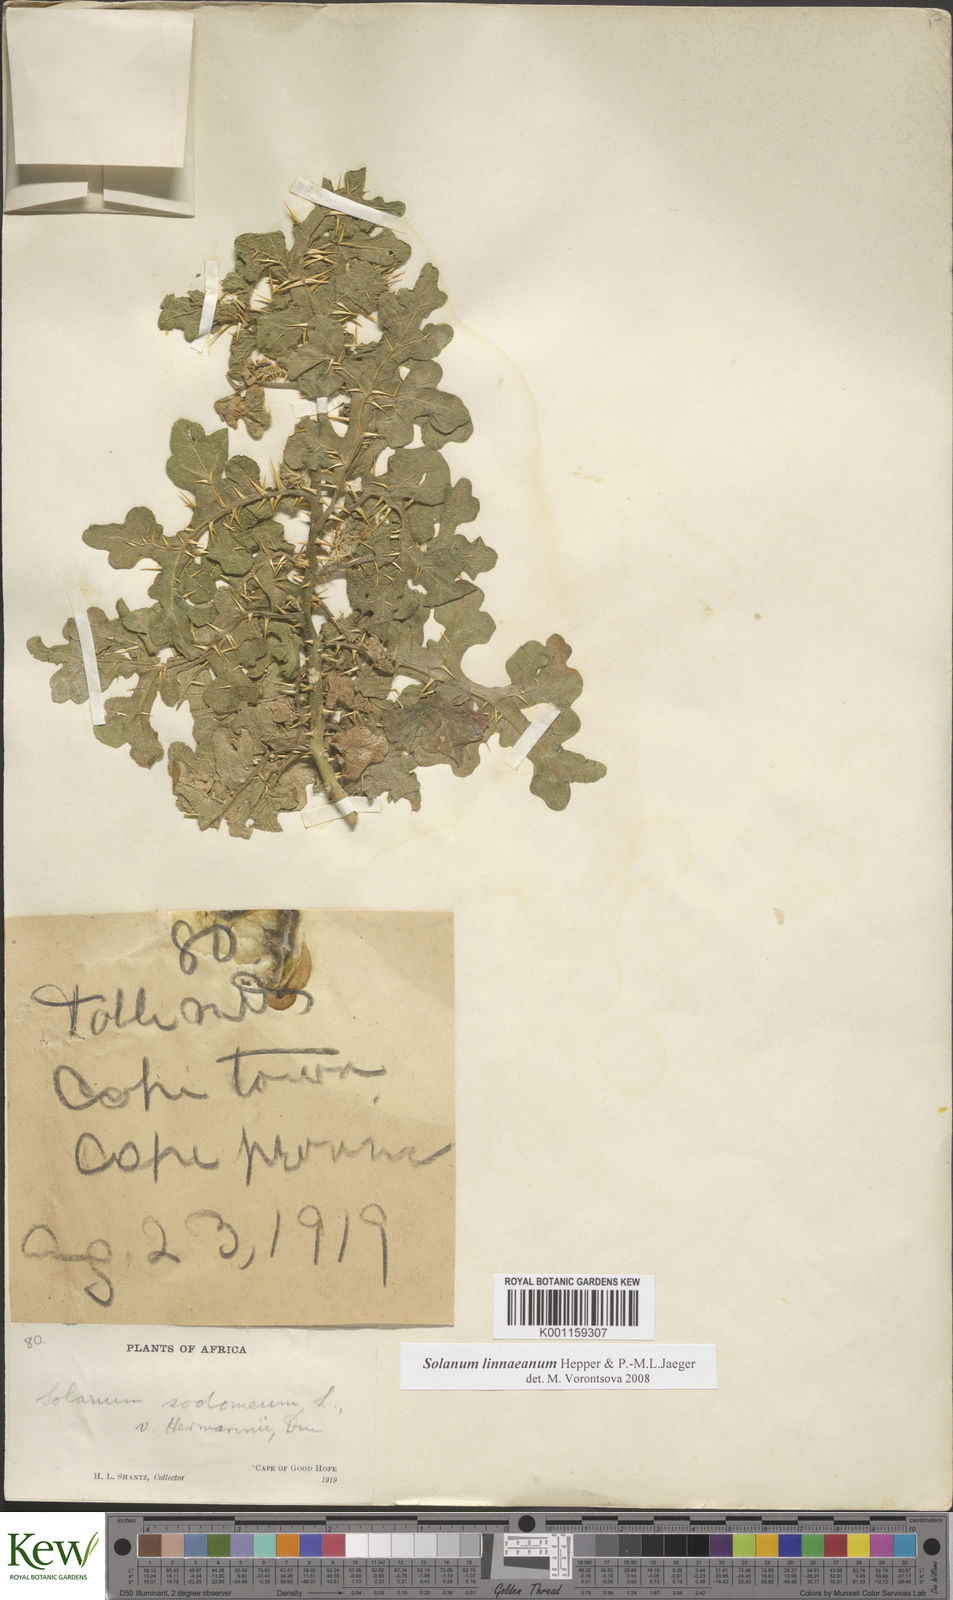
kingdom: Plantae
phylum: Tracheophyta
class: Magnoliopsida
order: Solanales
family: Solanaceae
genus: Solanum
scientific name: Solanum linnaeanum
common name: Nightshade
